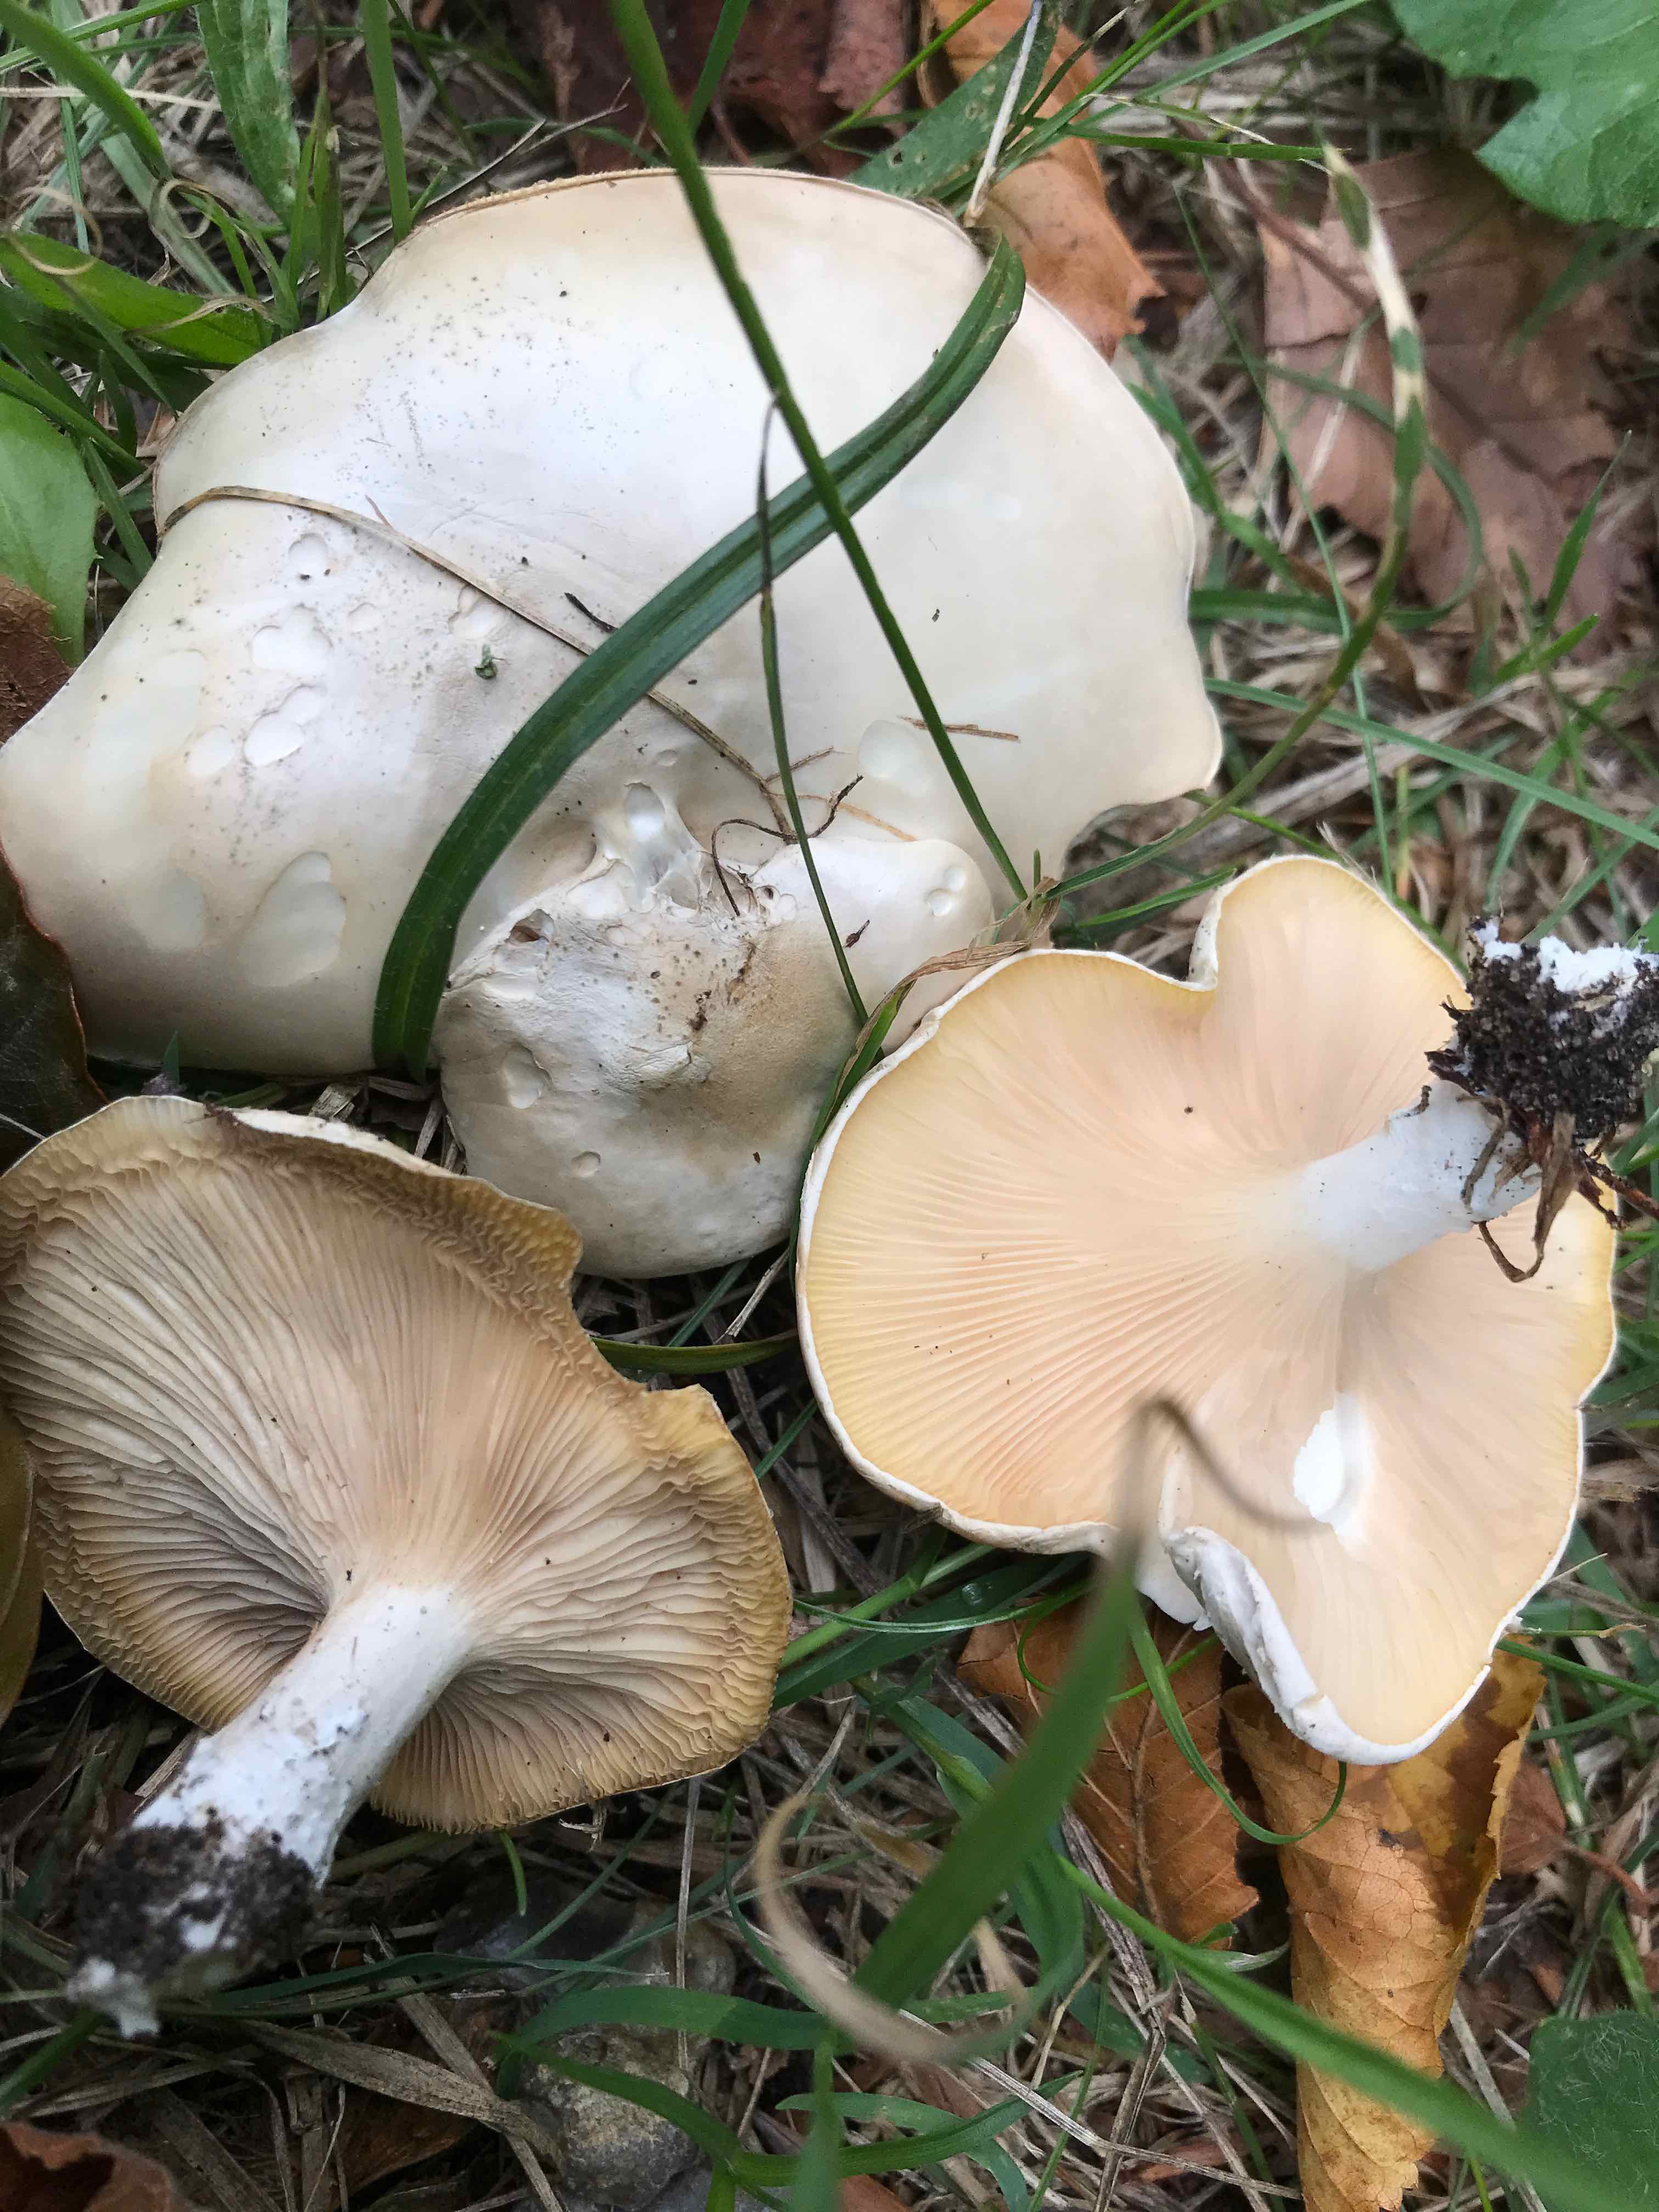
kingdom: Fungi
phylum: Basidiomycota
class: Agaricomycetes
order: Agaricales
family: Entolomataceae
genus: Clitopilus
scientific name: Clitopilus prunulus
